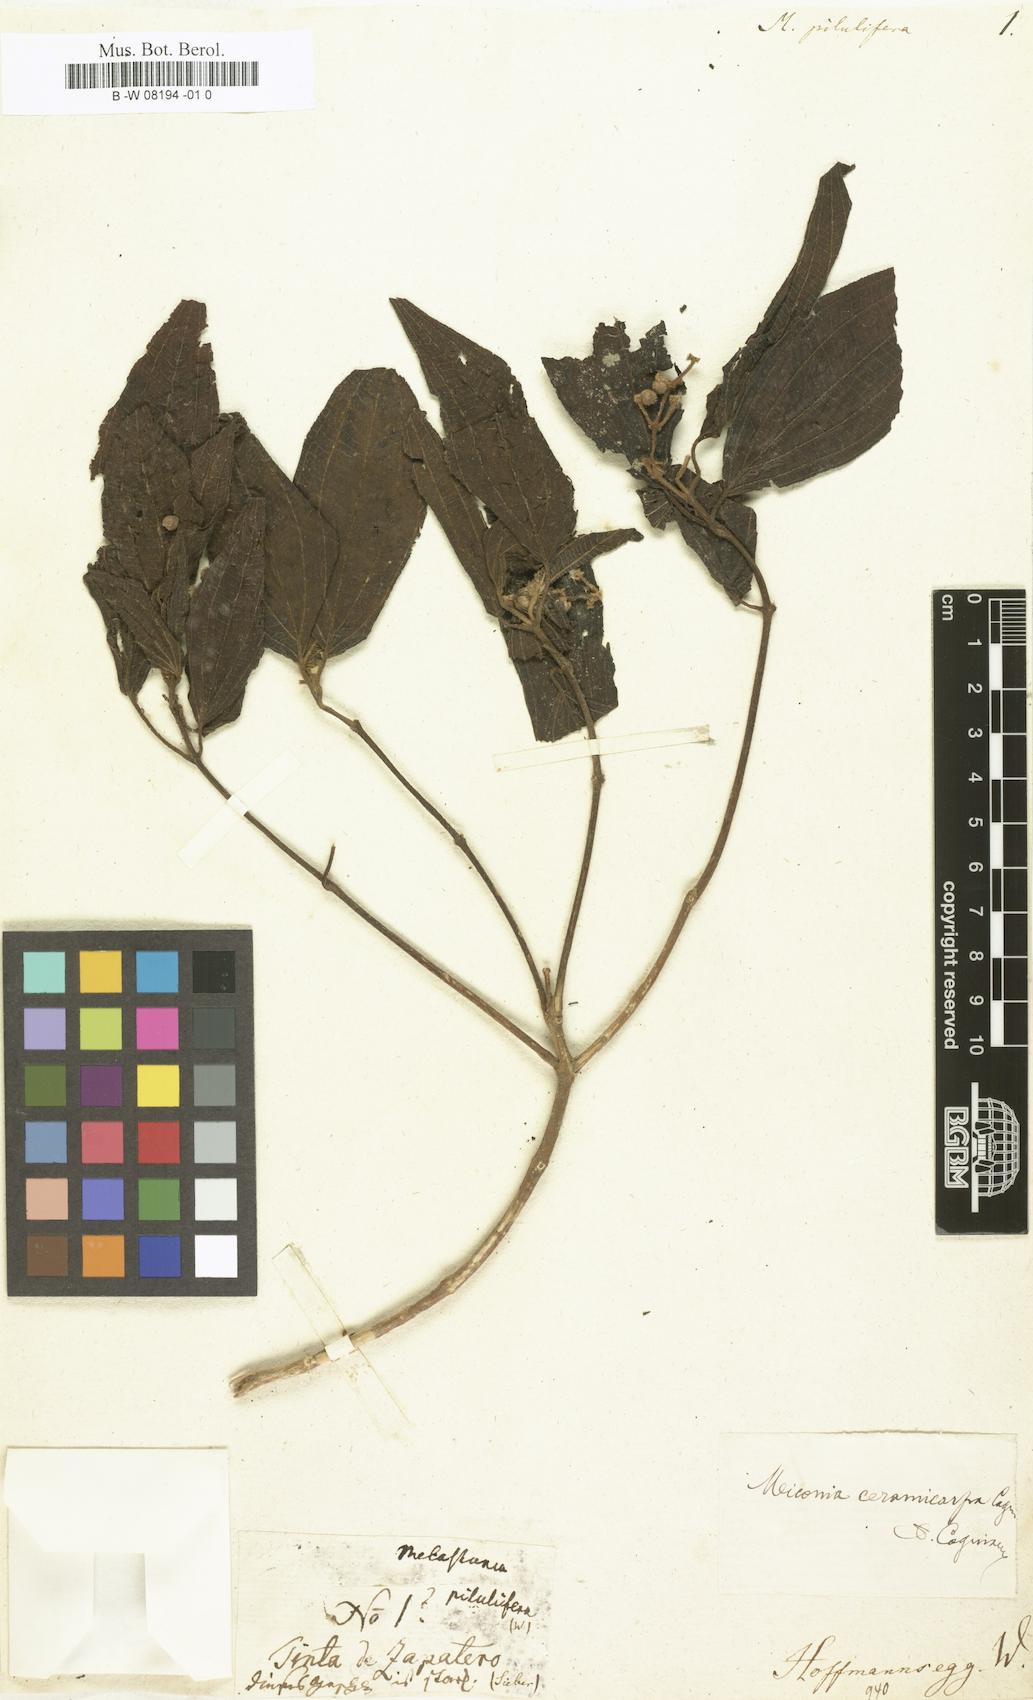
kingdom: Plantae
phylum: Tracheophyta
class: Magnoliopsida
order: Myrtales
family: Melastomataceae
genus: Miconia
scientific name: Miconia laevigata
